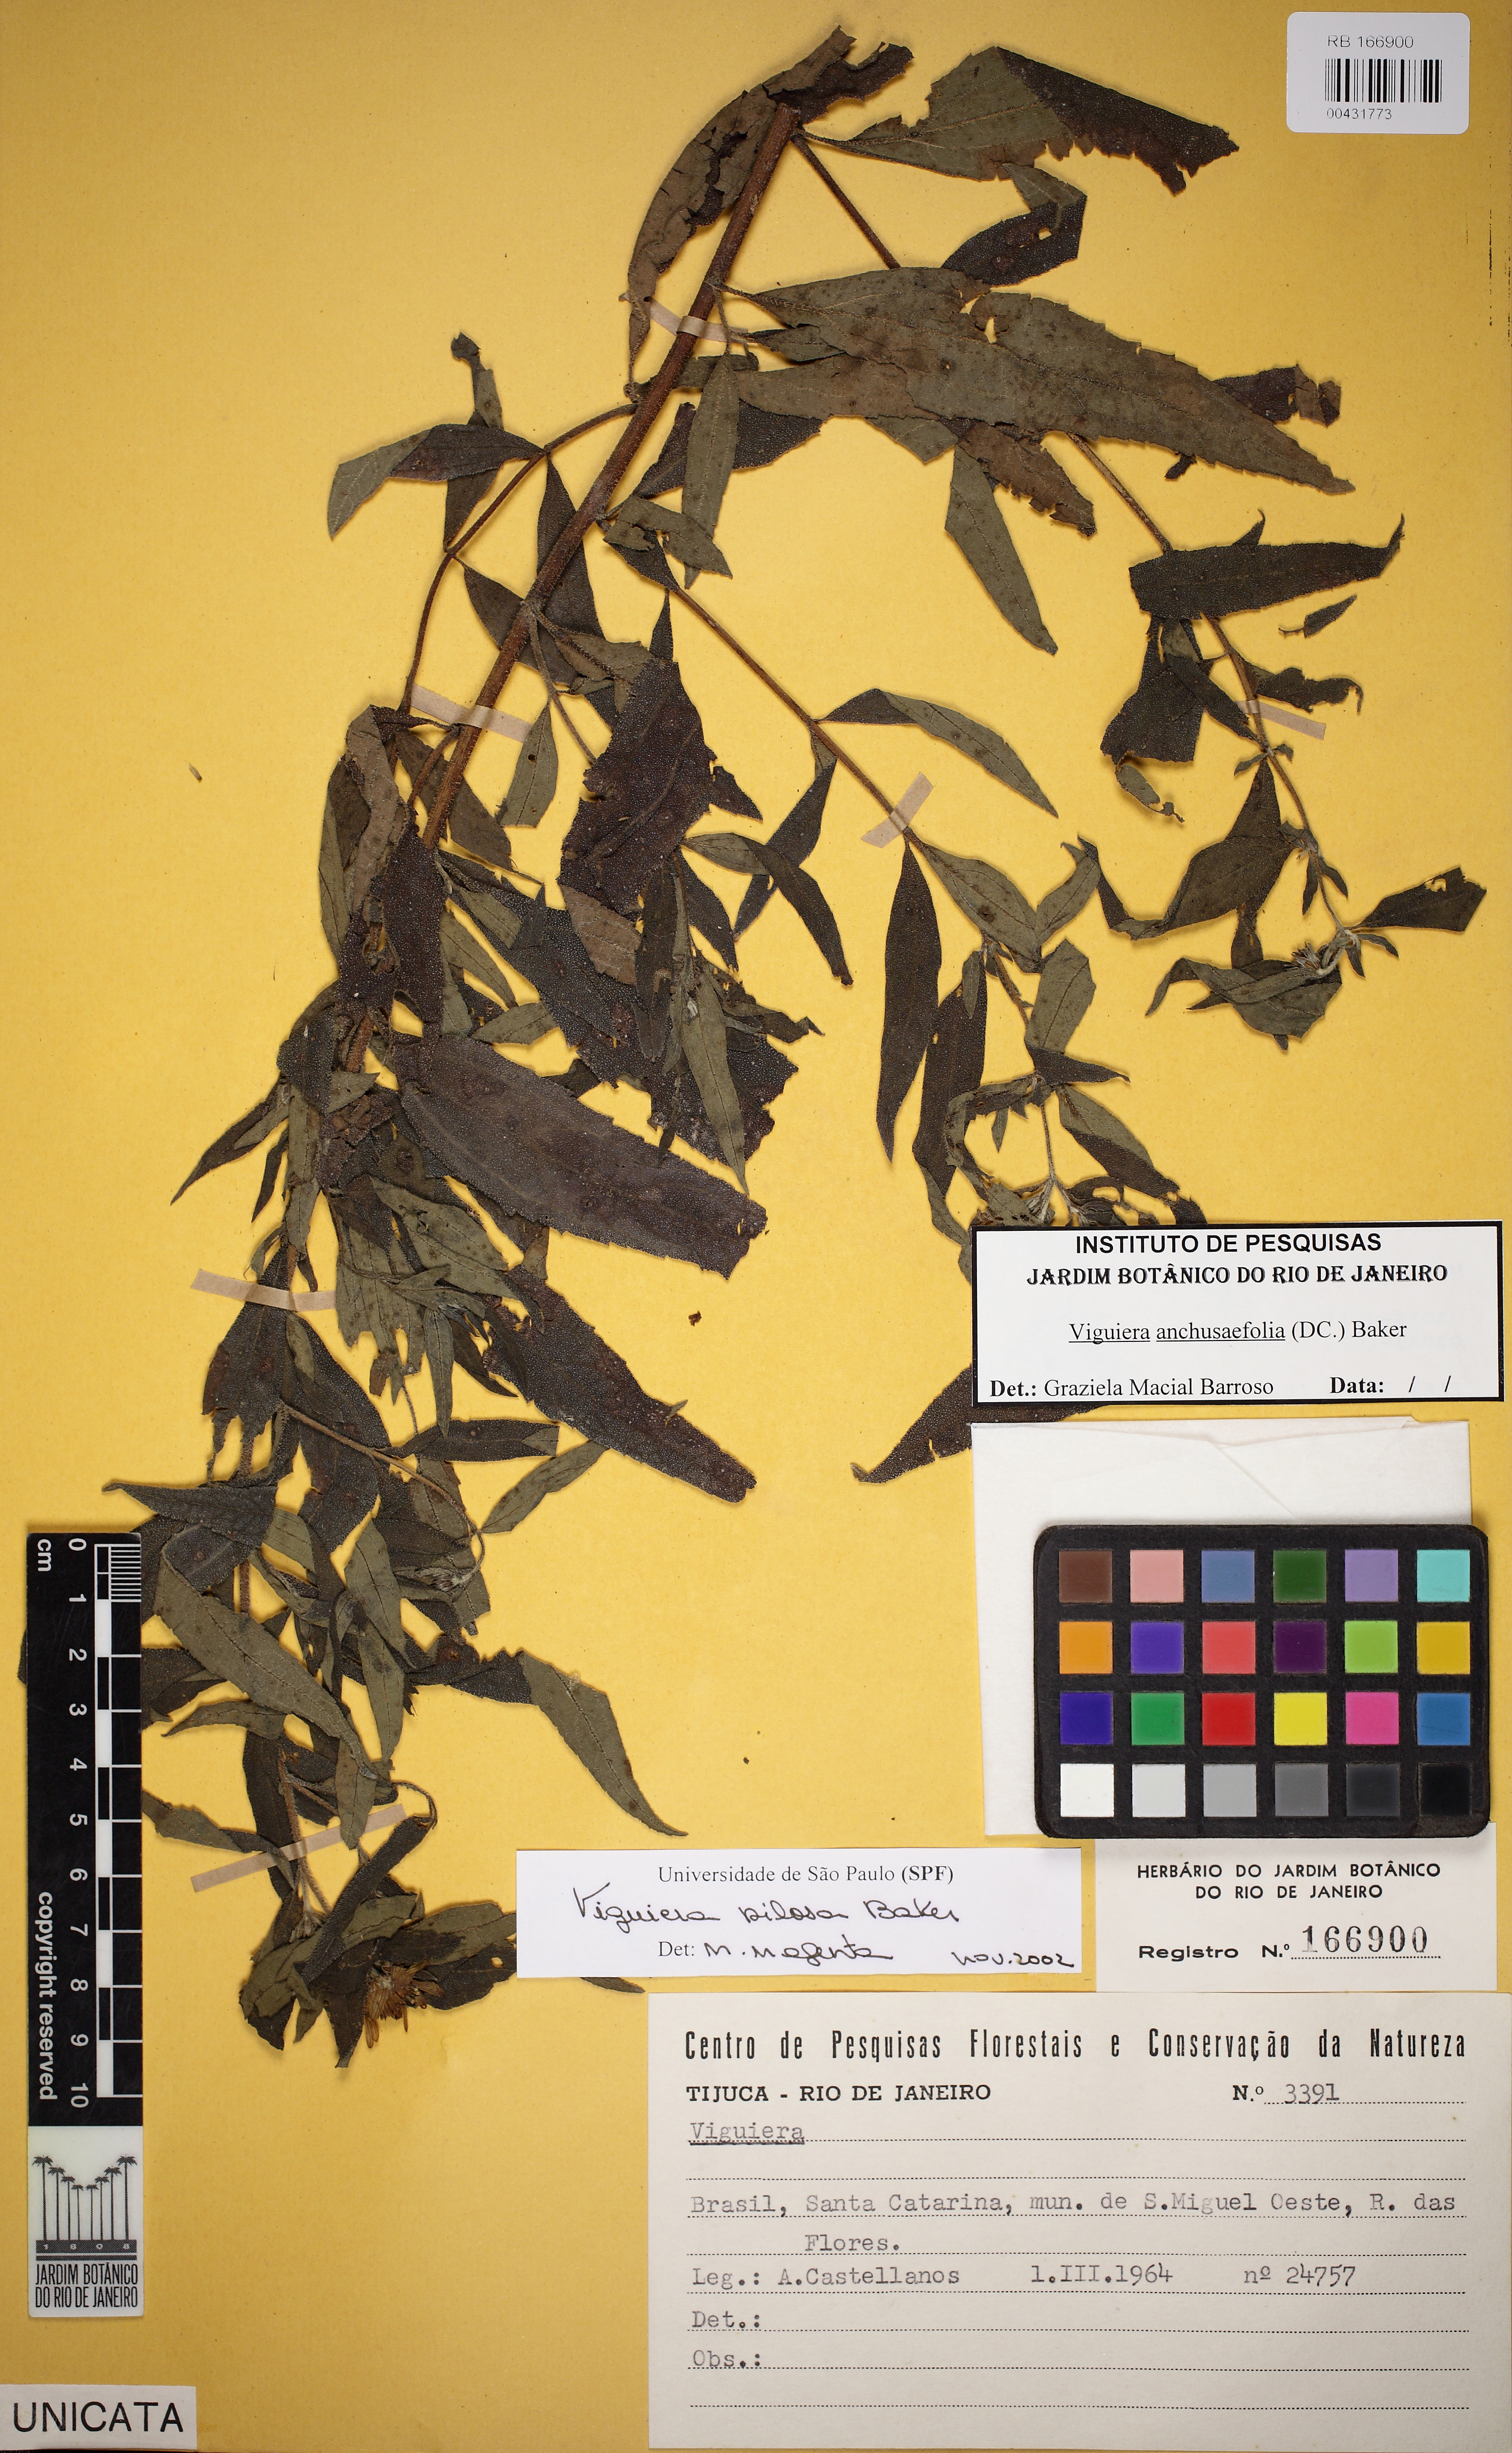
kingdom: Plantae
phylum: Tracheophyta
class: Magnoliopsida
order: Asterales
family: Asteraceae
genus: Aldama
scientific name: Aldama pilosa
